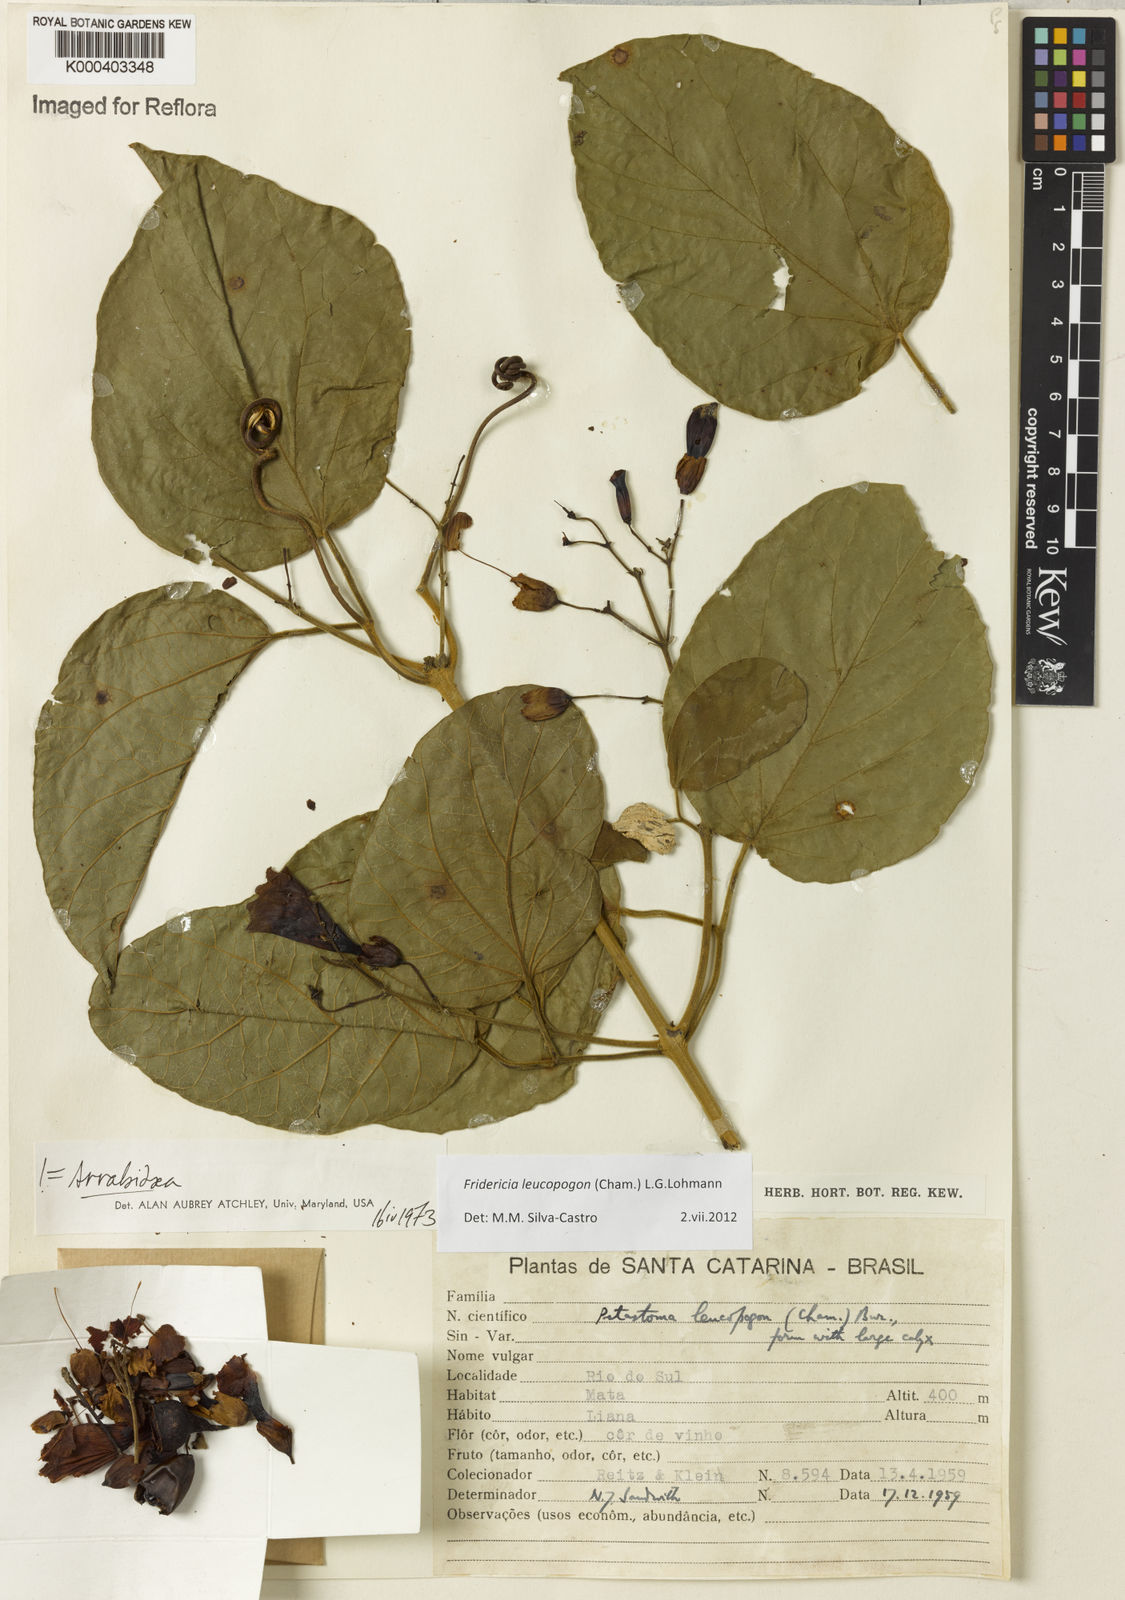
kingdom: Plantae
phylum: Tracheophyta
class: Magnoliopsida
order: Lamiales
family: Bignoniaceae
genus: Fridericia
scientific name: Fridericia leucopogon
